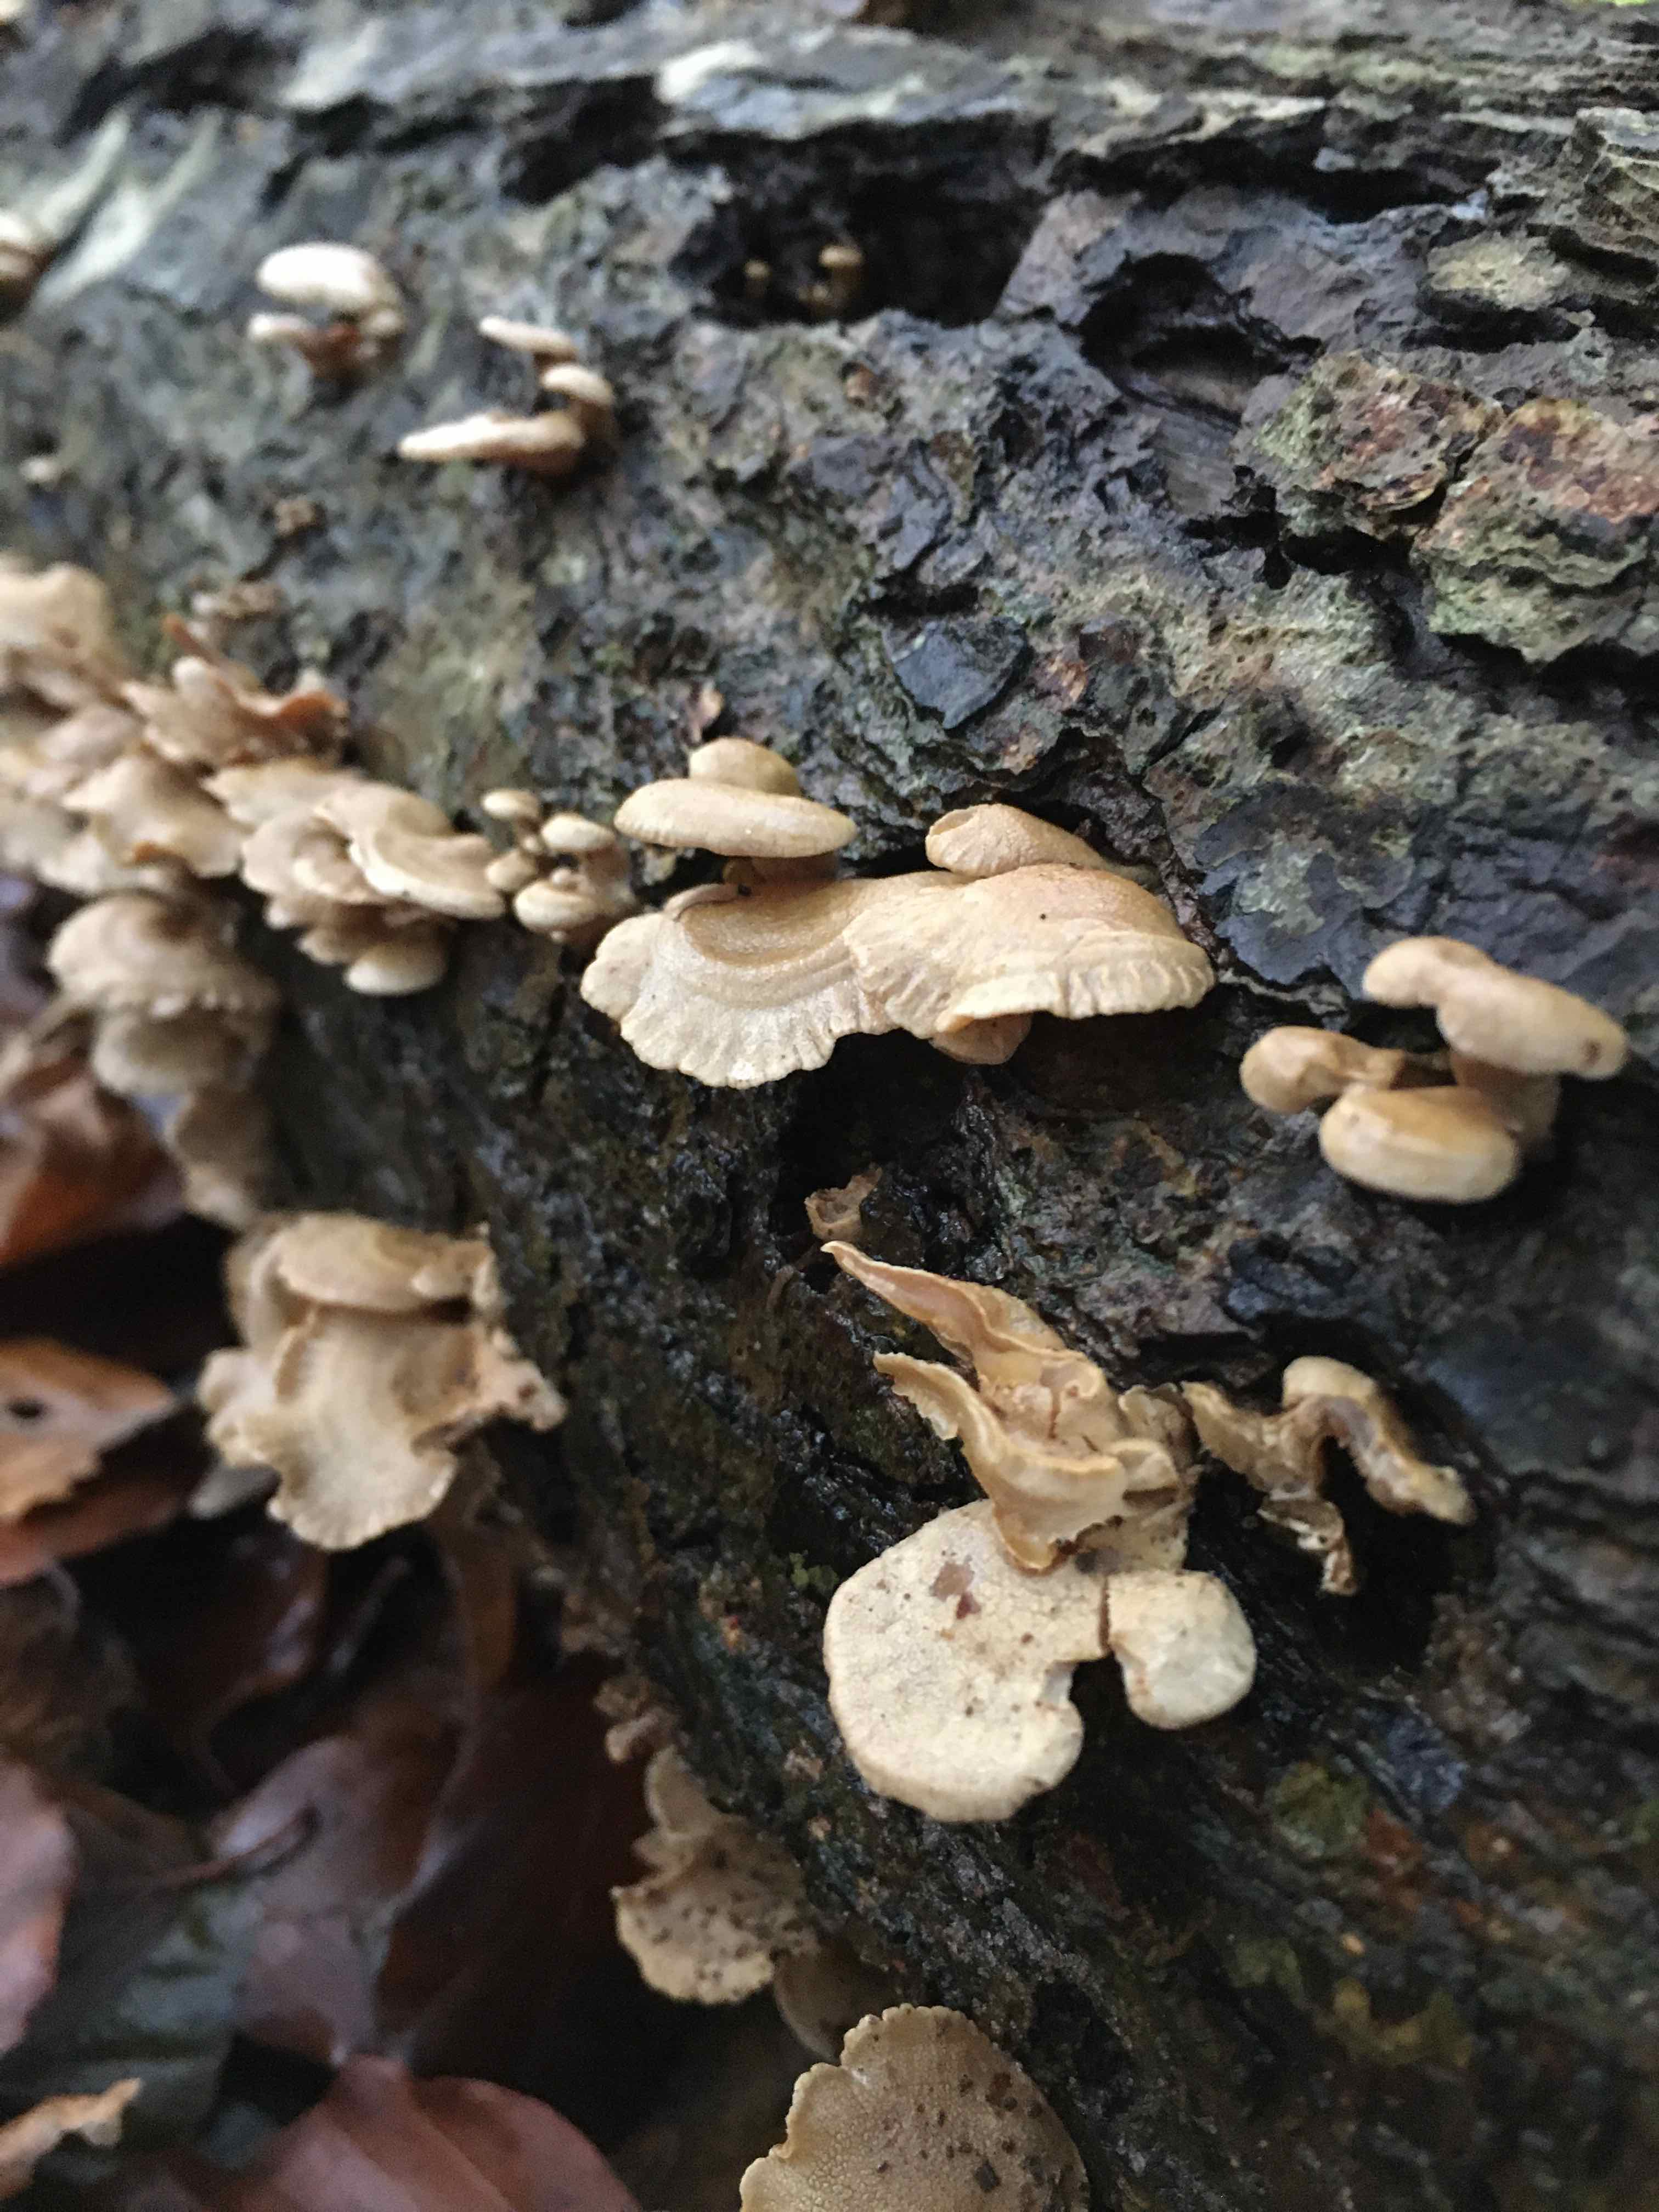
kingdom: Fungi
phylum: Basidiomycota
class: Agaricomycetes
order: Agaricales
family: Mycenaceae
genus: Panellus
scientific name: Panellus stipticus
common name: kliddet epaulethat
